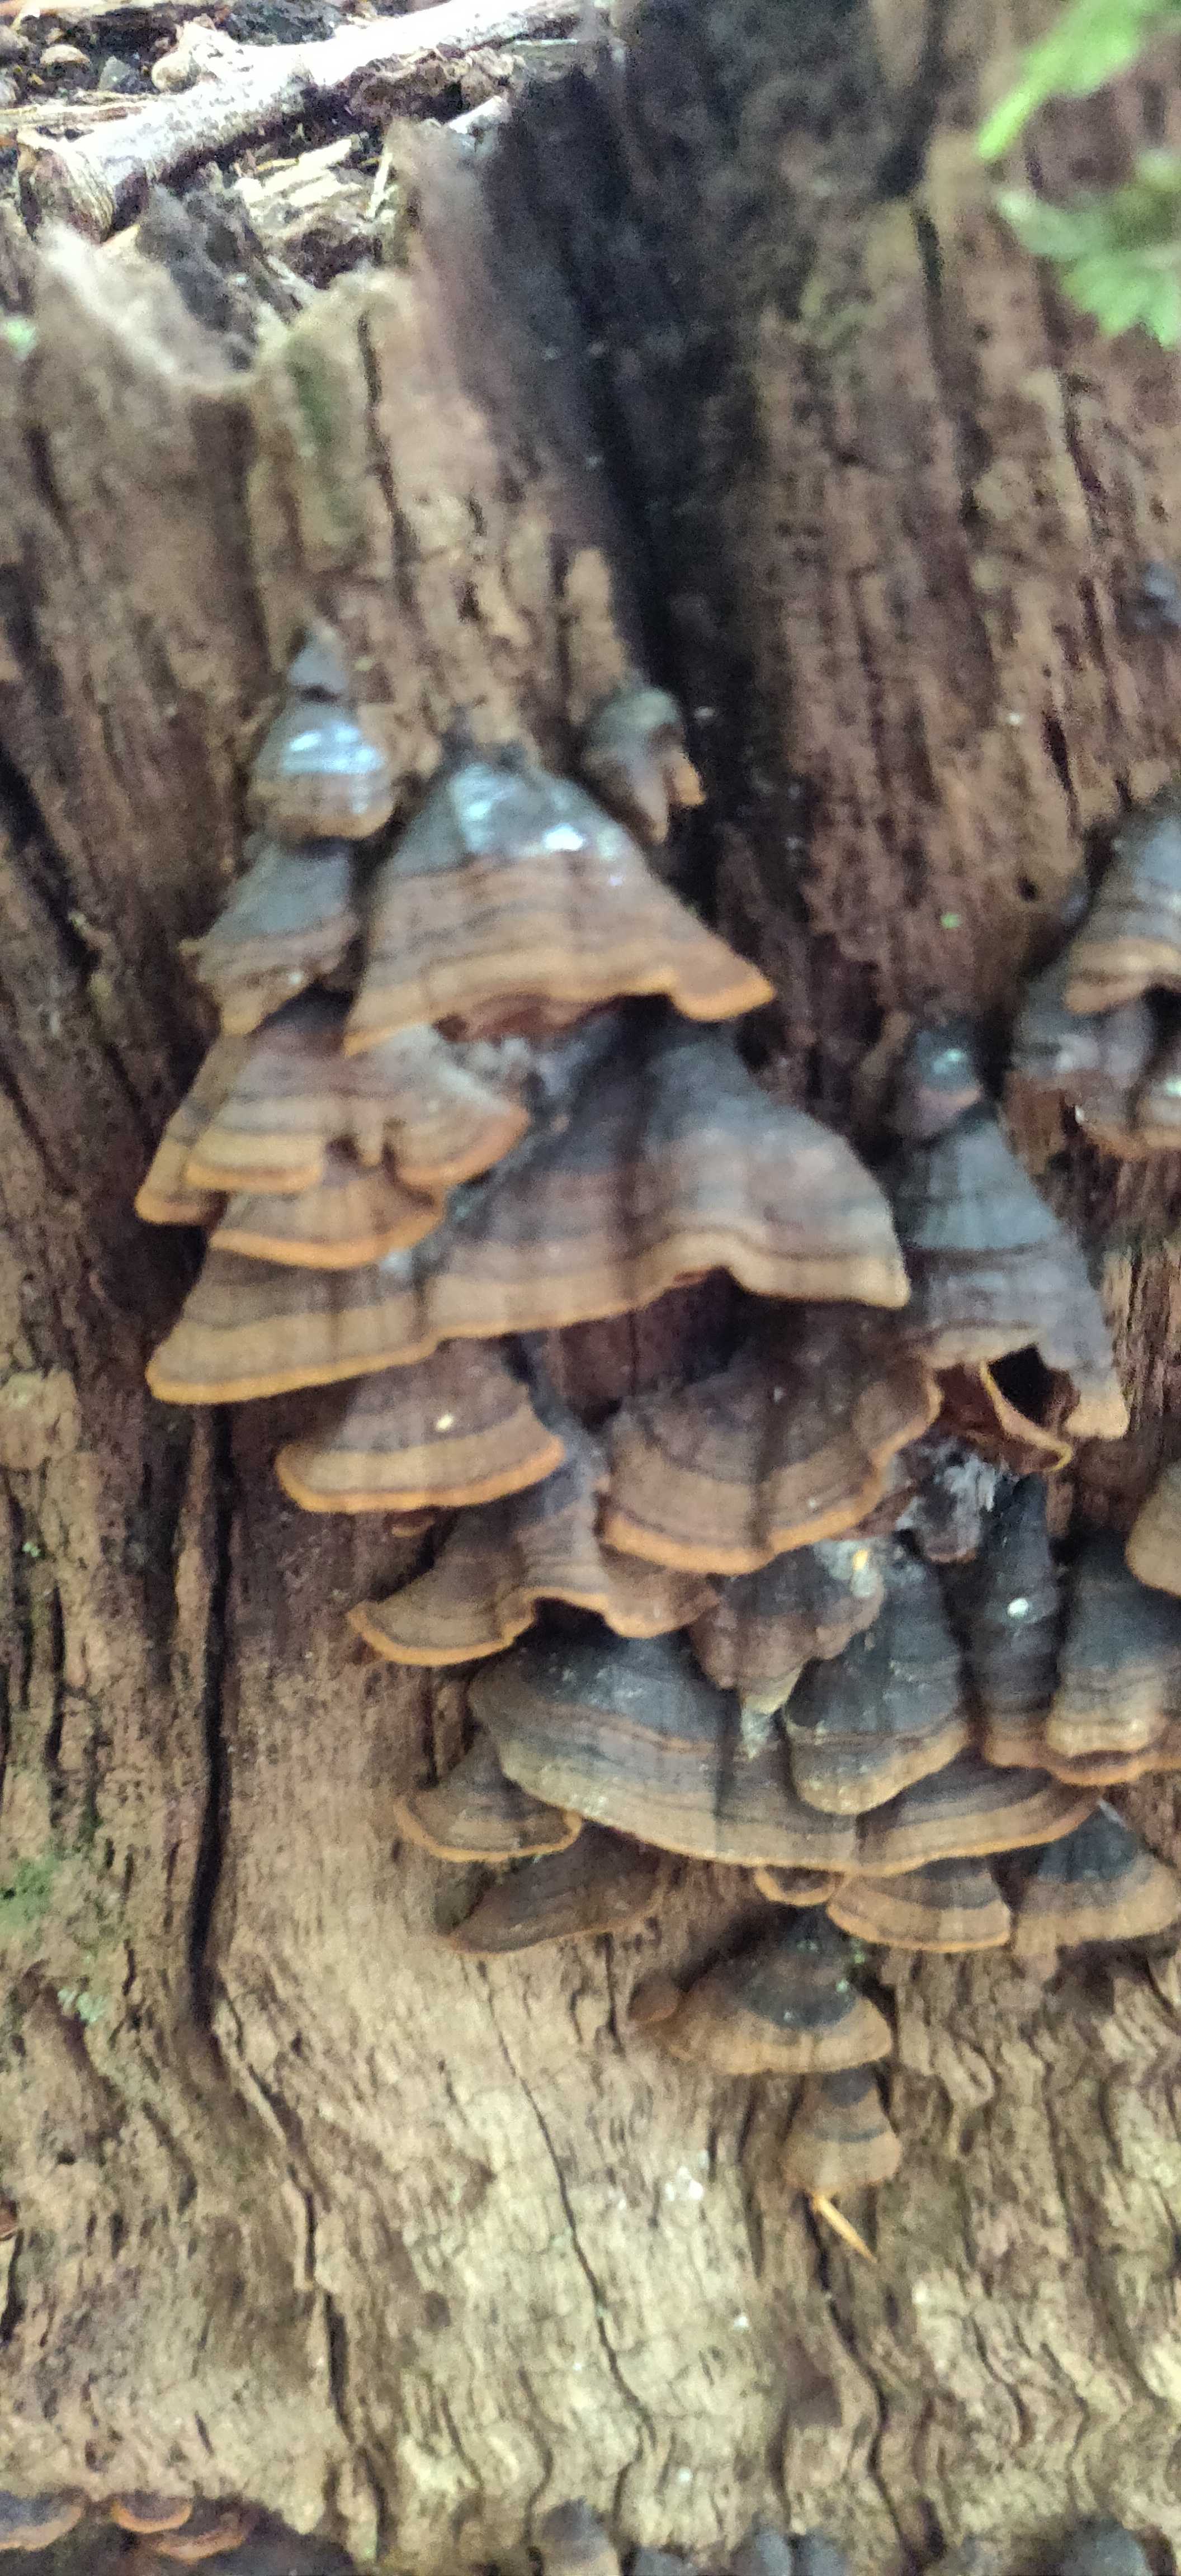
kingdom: Fungi
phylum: Basidiomycota
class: Agaricomycetes
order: Hymenochaetales
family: Hymenochaetaceae
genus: Hymenochaete
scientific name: Hymenochaete rubiginosa
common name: stiv ruslædersvamp
